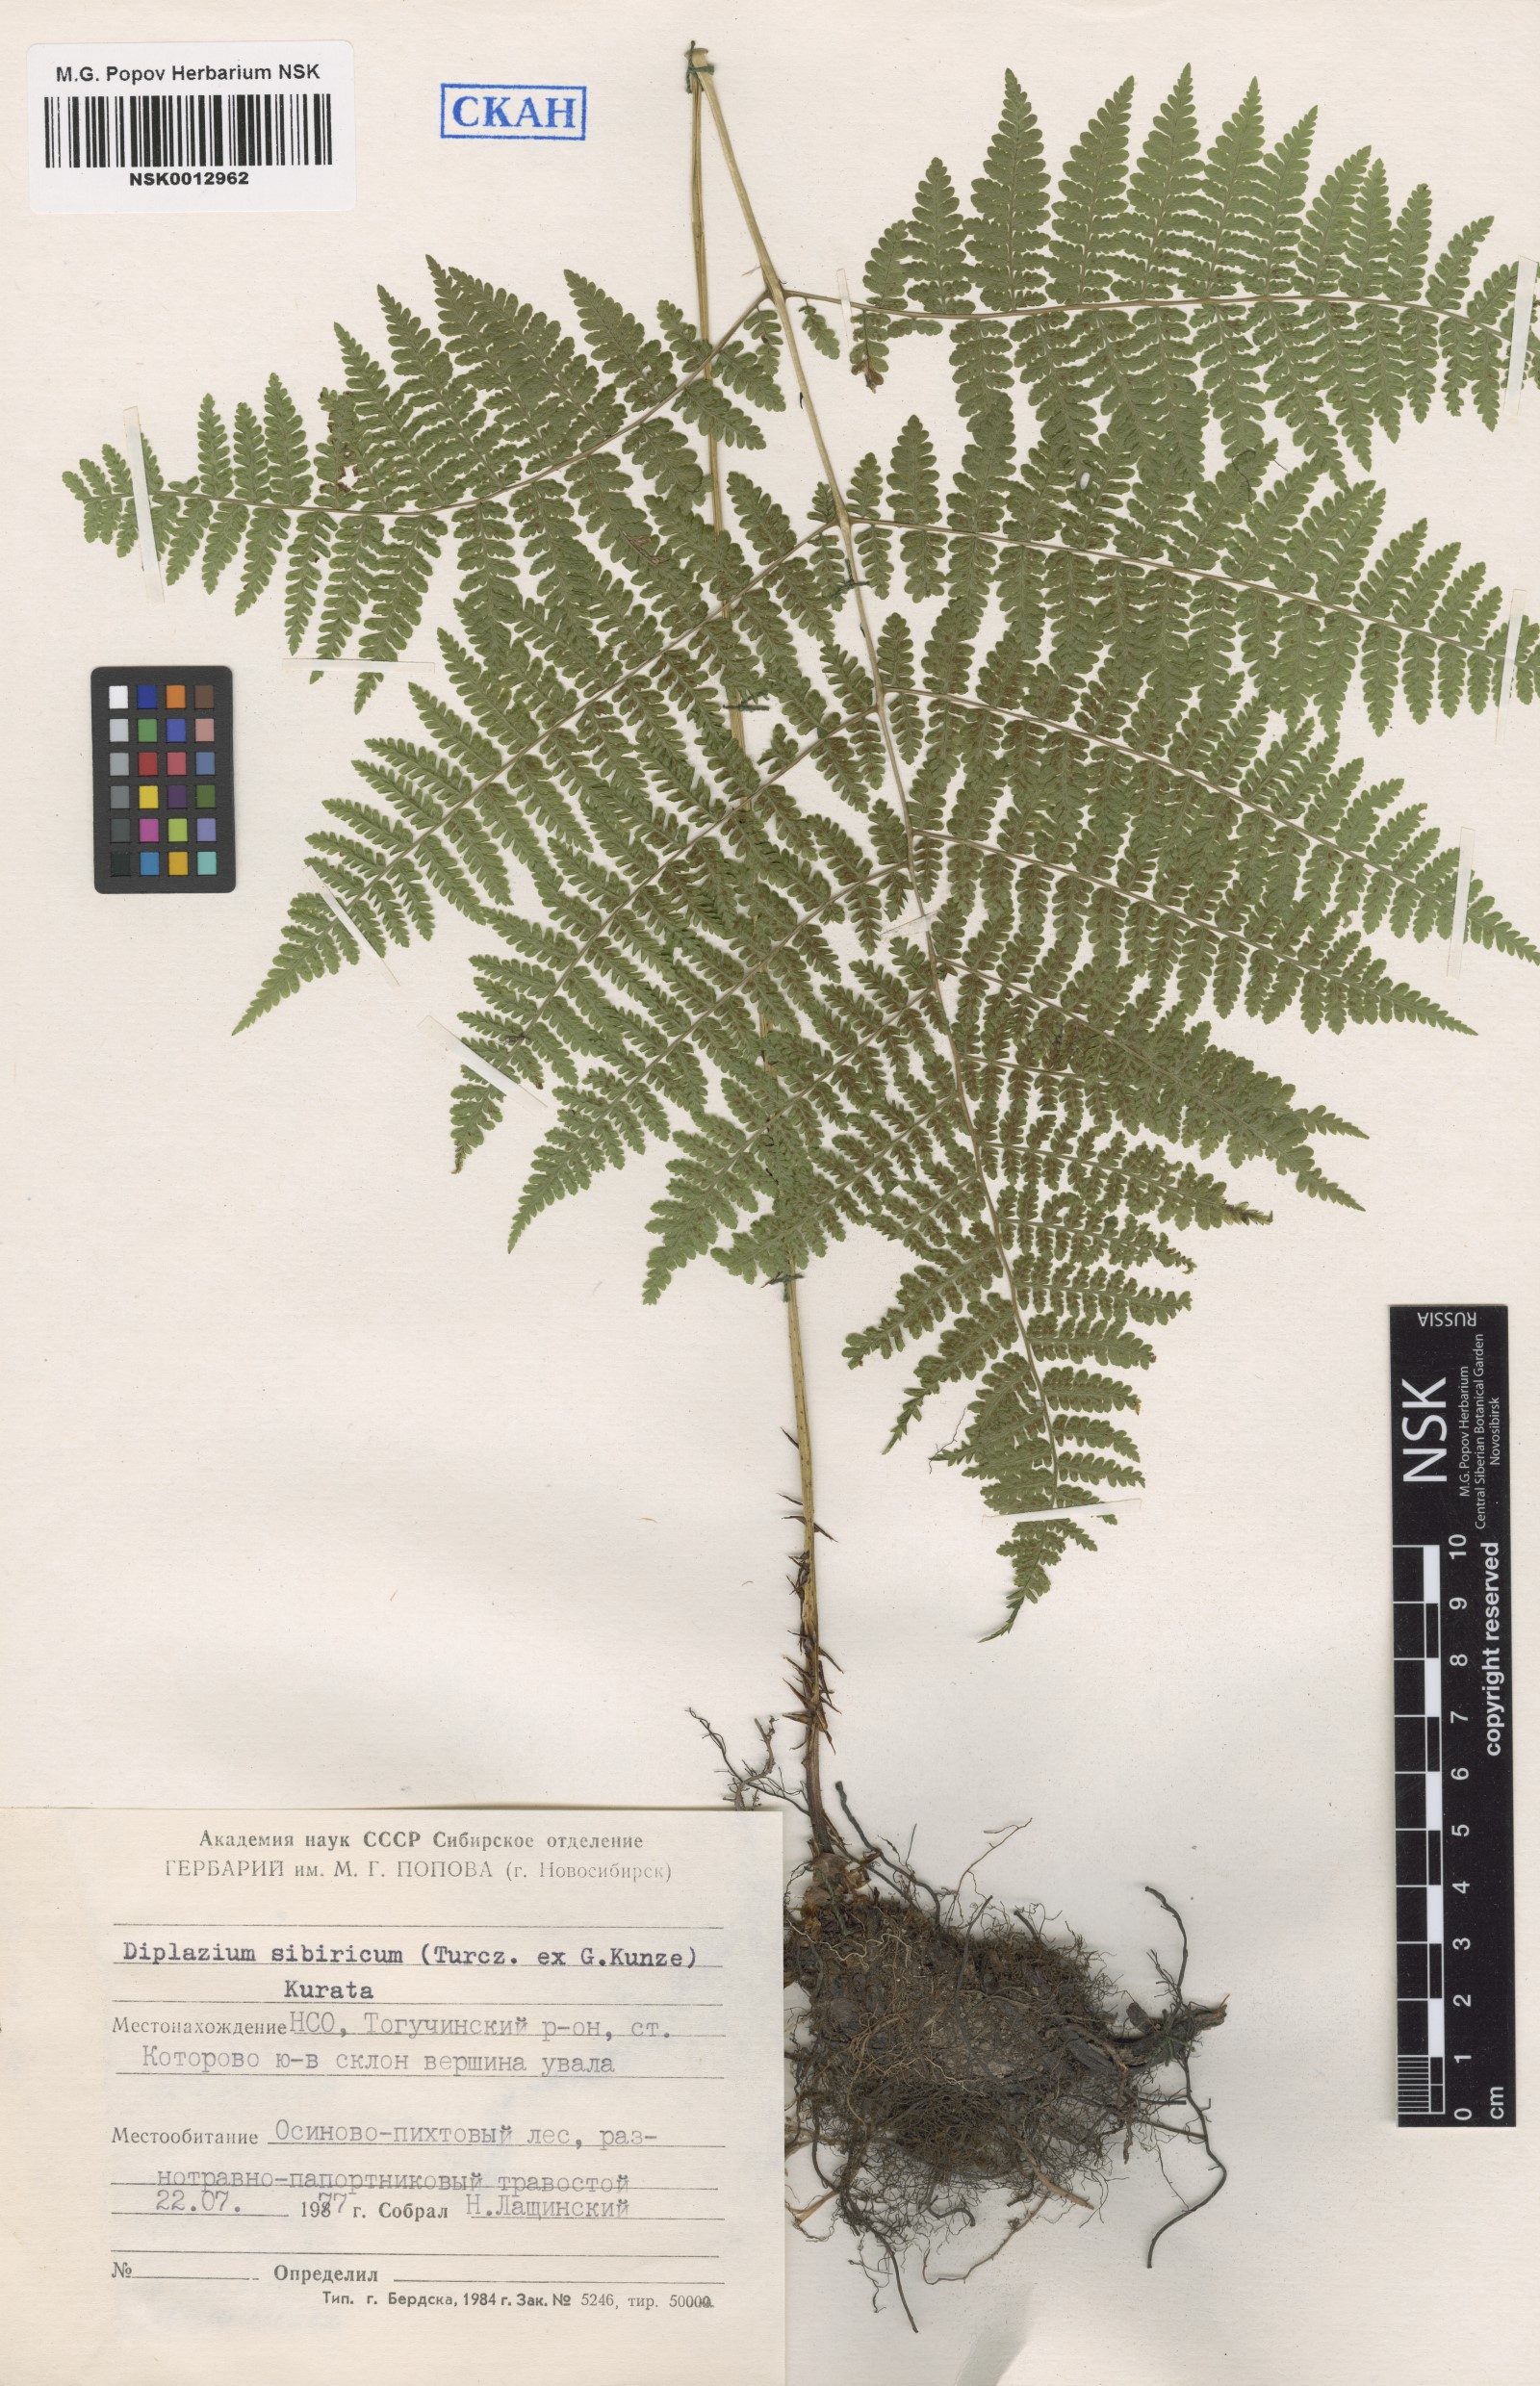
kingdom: Plantae
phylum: Tracheophyta
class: Polypodiopsida
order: Polypodiales
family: Athyriaceae
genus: Diplazium
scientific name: Diplazium sibiricum
